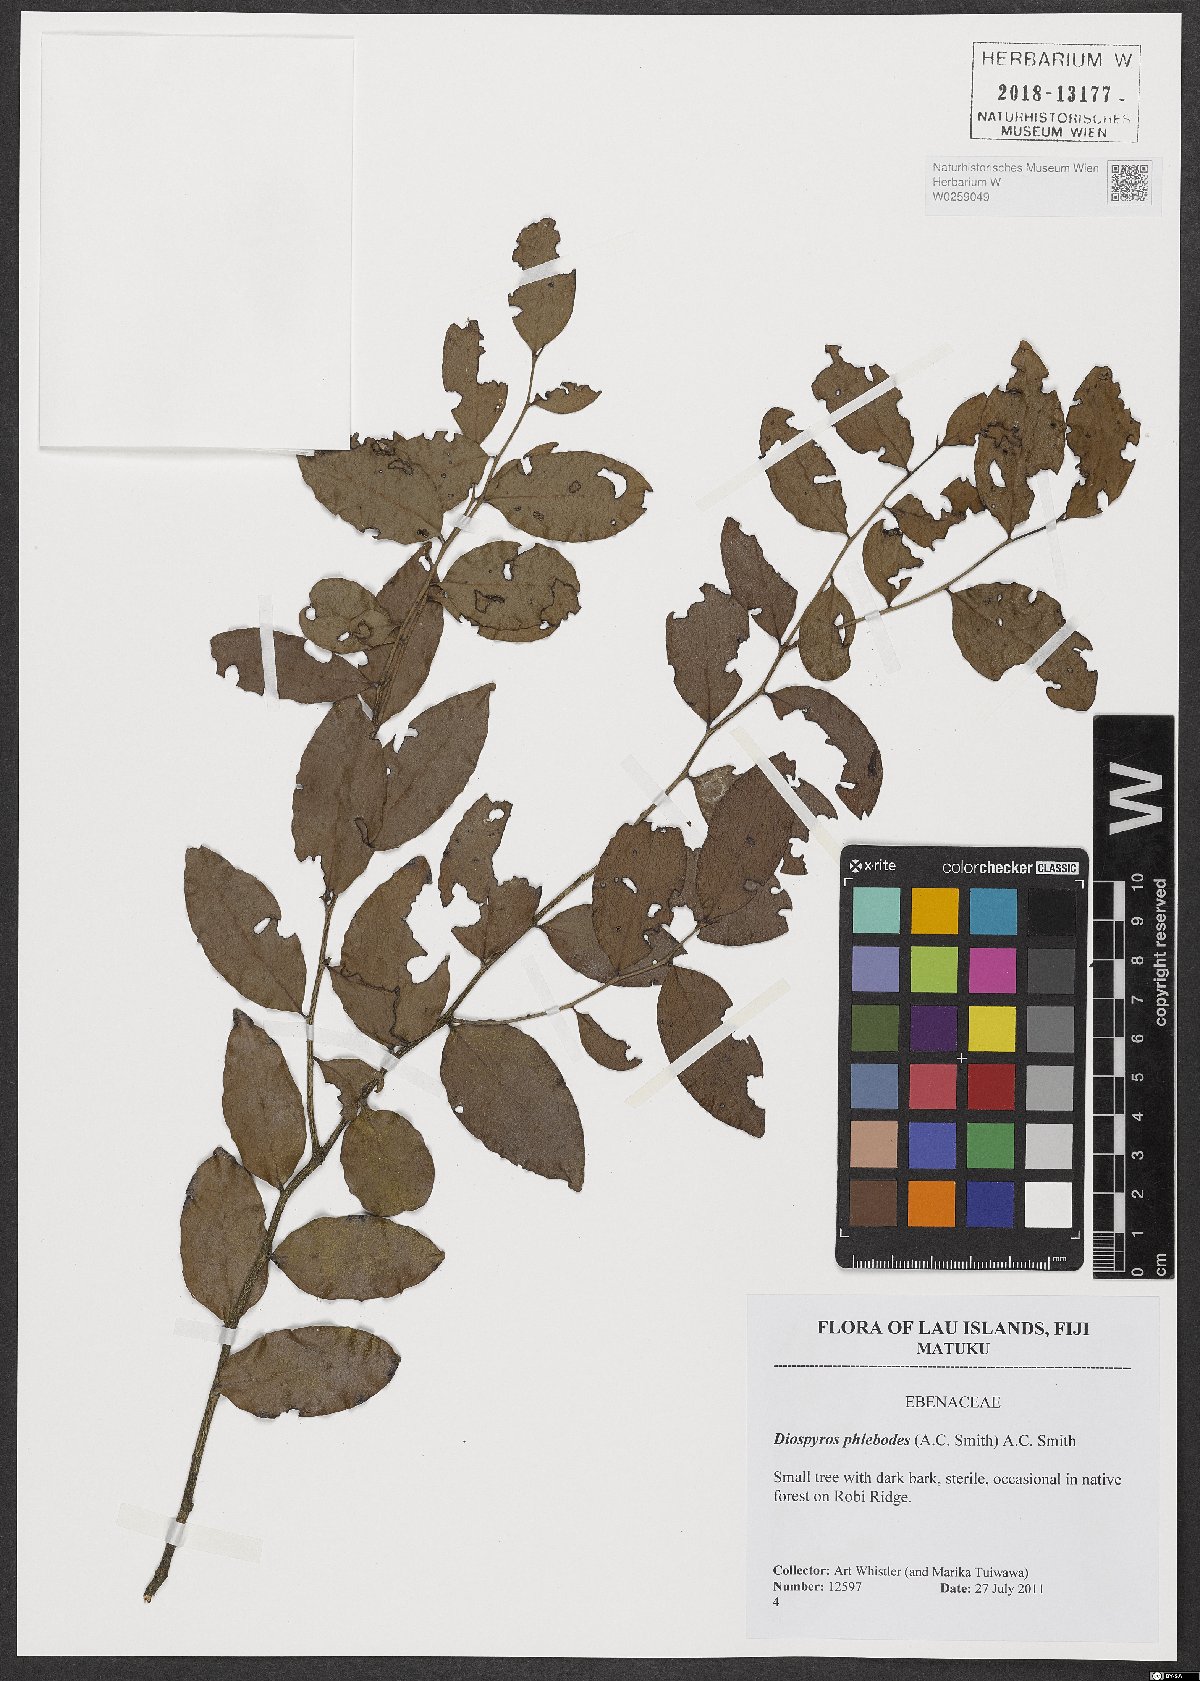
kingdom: Plantae
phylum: Tracheophyta
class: Magnoliopsida
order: Ericales
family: Ebenaceae
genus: Diospyros
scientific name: Diospyros phlebodes
